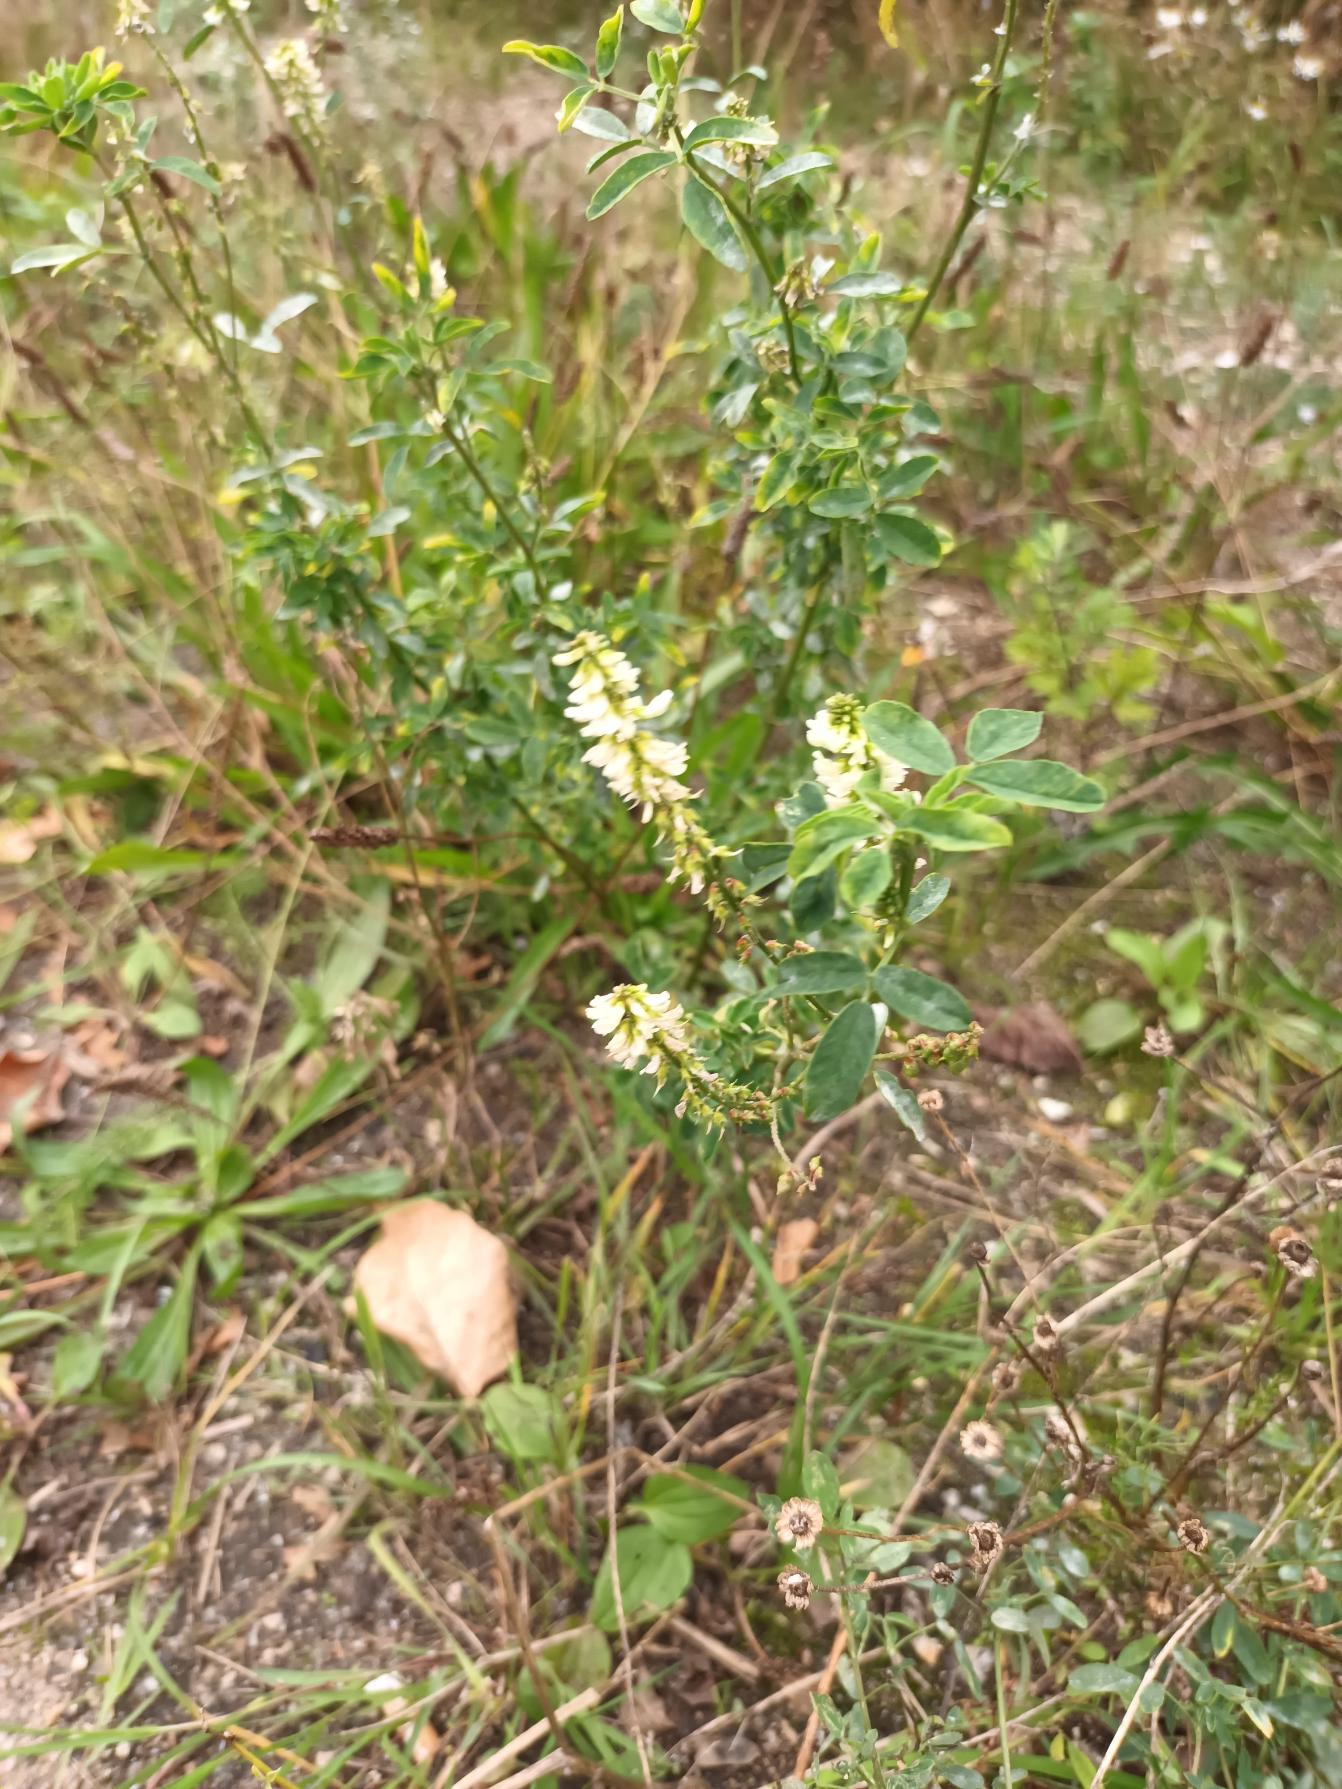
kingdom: Plantae
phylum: Tracheophyta
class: Magnoliopsida
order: Fabales
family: Fabaceae
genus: Melilotus
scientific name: Melilotus albus
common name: Hvid stenkløver
